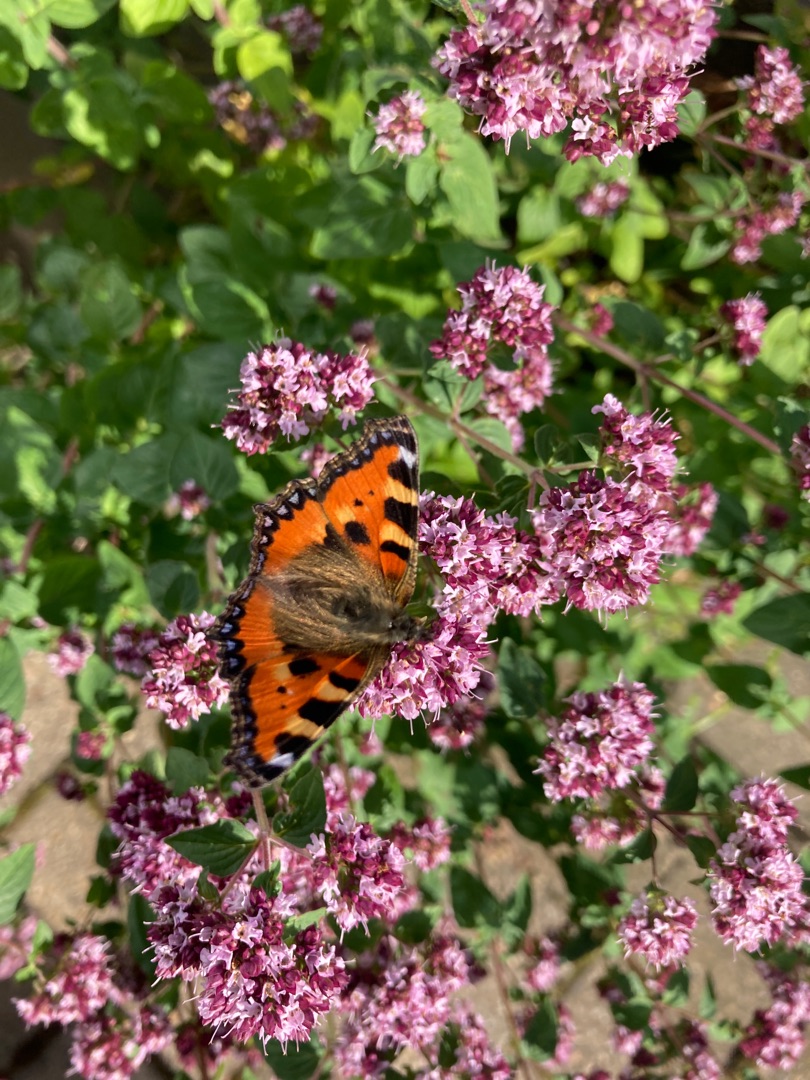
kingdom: Animalia
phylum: Arthropoda
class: Insecta
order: Lepidoptera
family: Nymphalidae
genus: Aglais
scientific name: Aglais urticae
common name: Nældens takvinge
